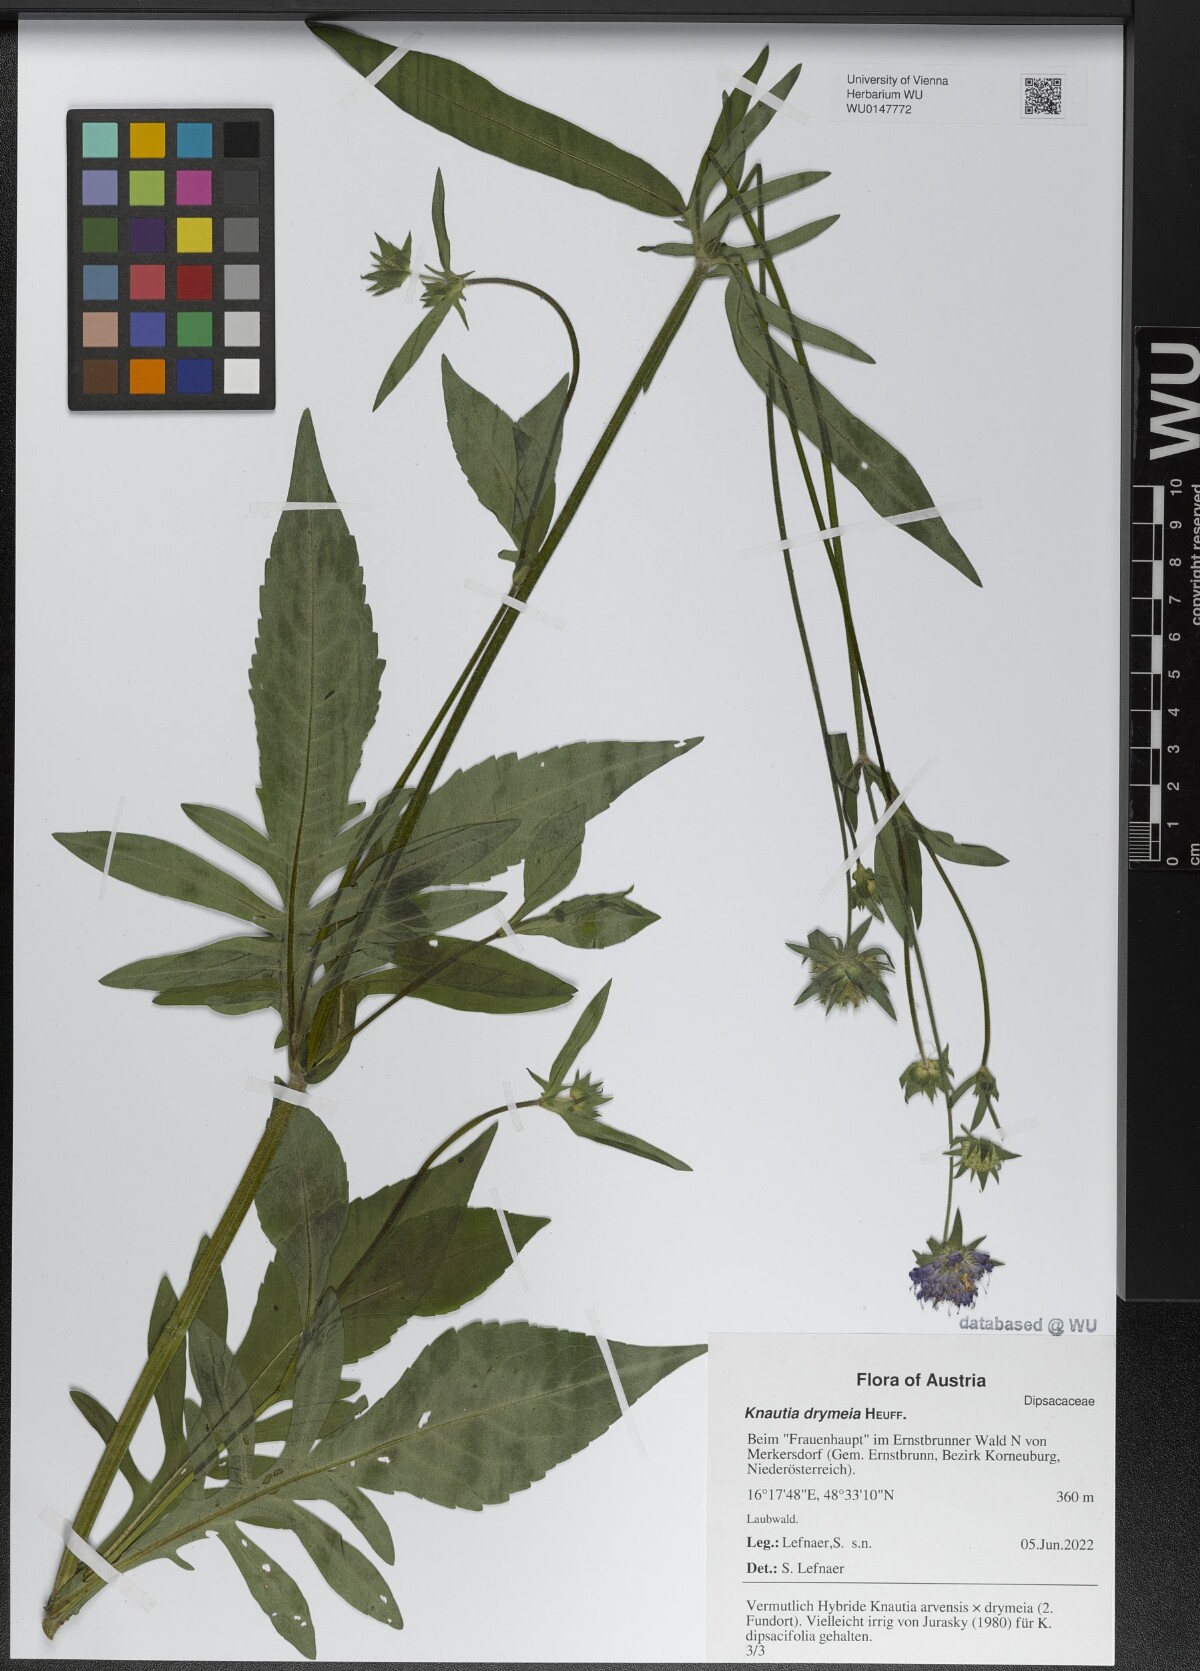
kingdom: Plantae
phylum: Tracheophyta
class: Magnoliopsida
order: Dipsacales
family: Caprifoliaceae
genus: Knautia
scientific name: Knautia drymeia
